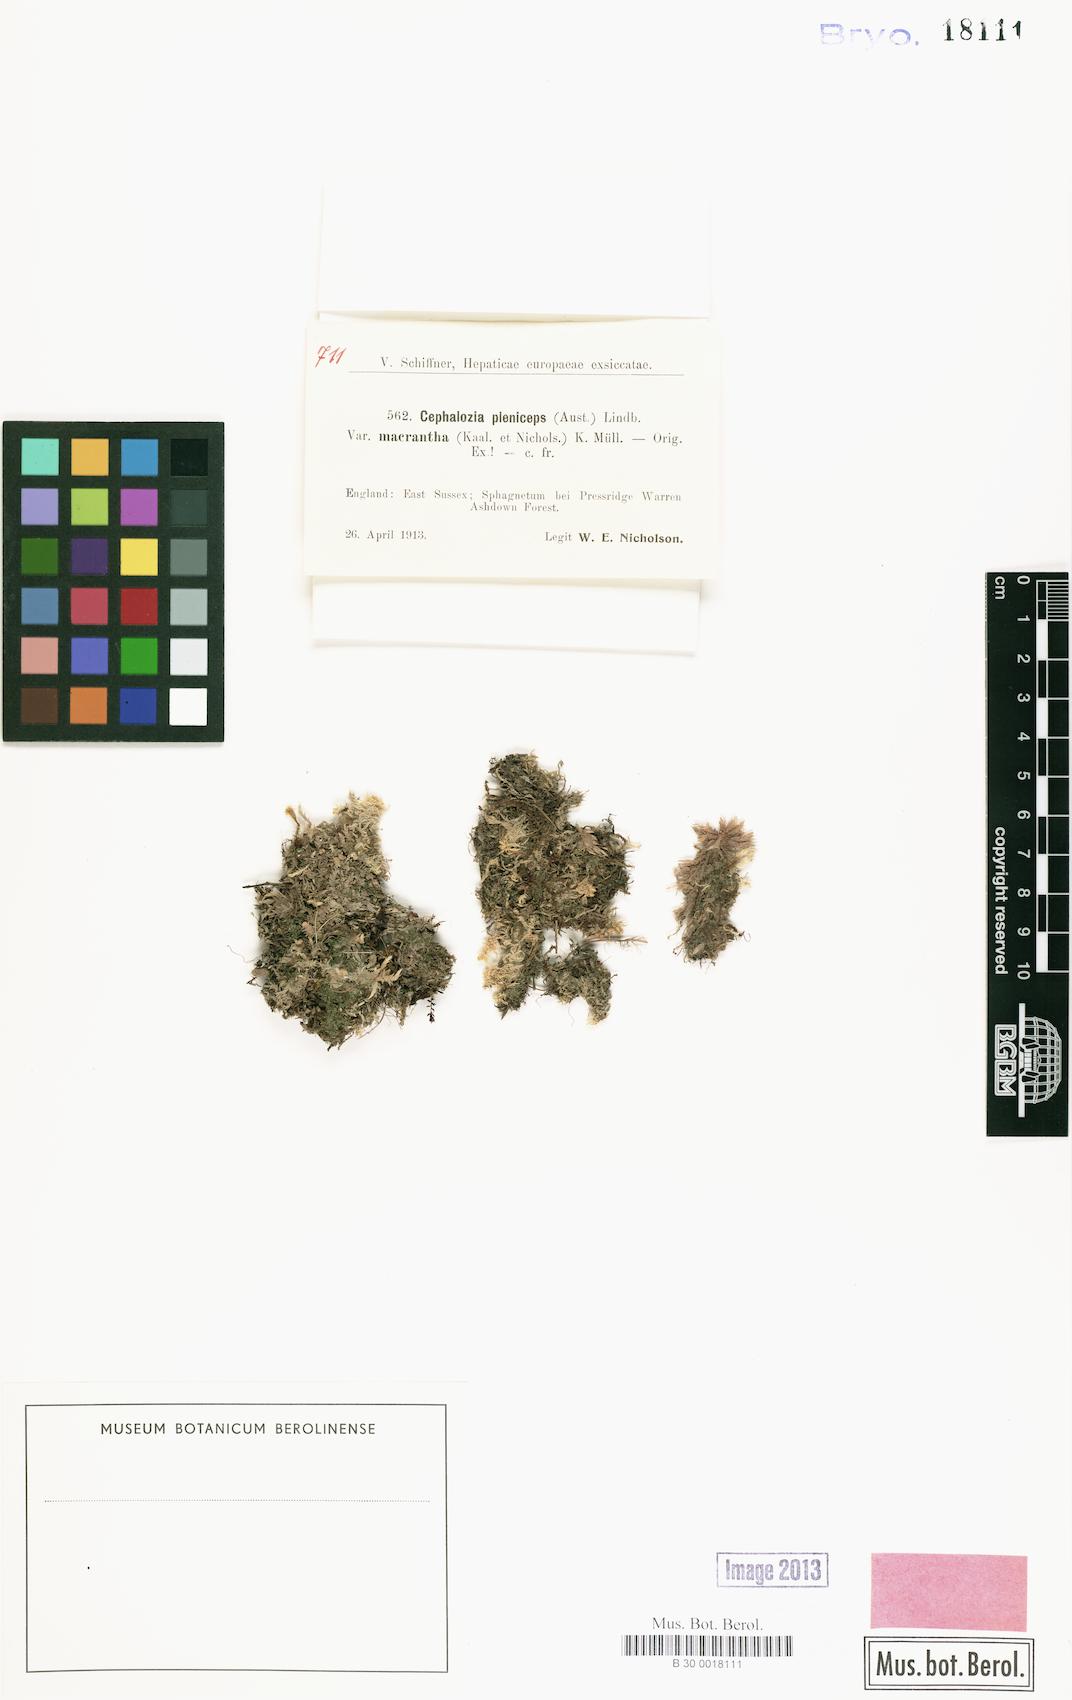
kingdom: Plantae
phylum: Marchantiophyta
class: Jungermanniopsida
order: Jungermanniales
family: Cephaloziaceae
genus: Fuscocephaloziopsis
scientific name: Fuscocephaloziopsis pleniceps
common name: Blunt pincerwort
